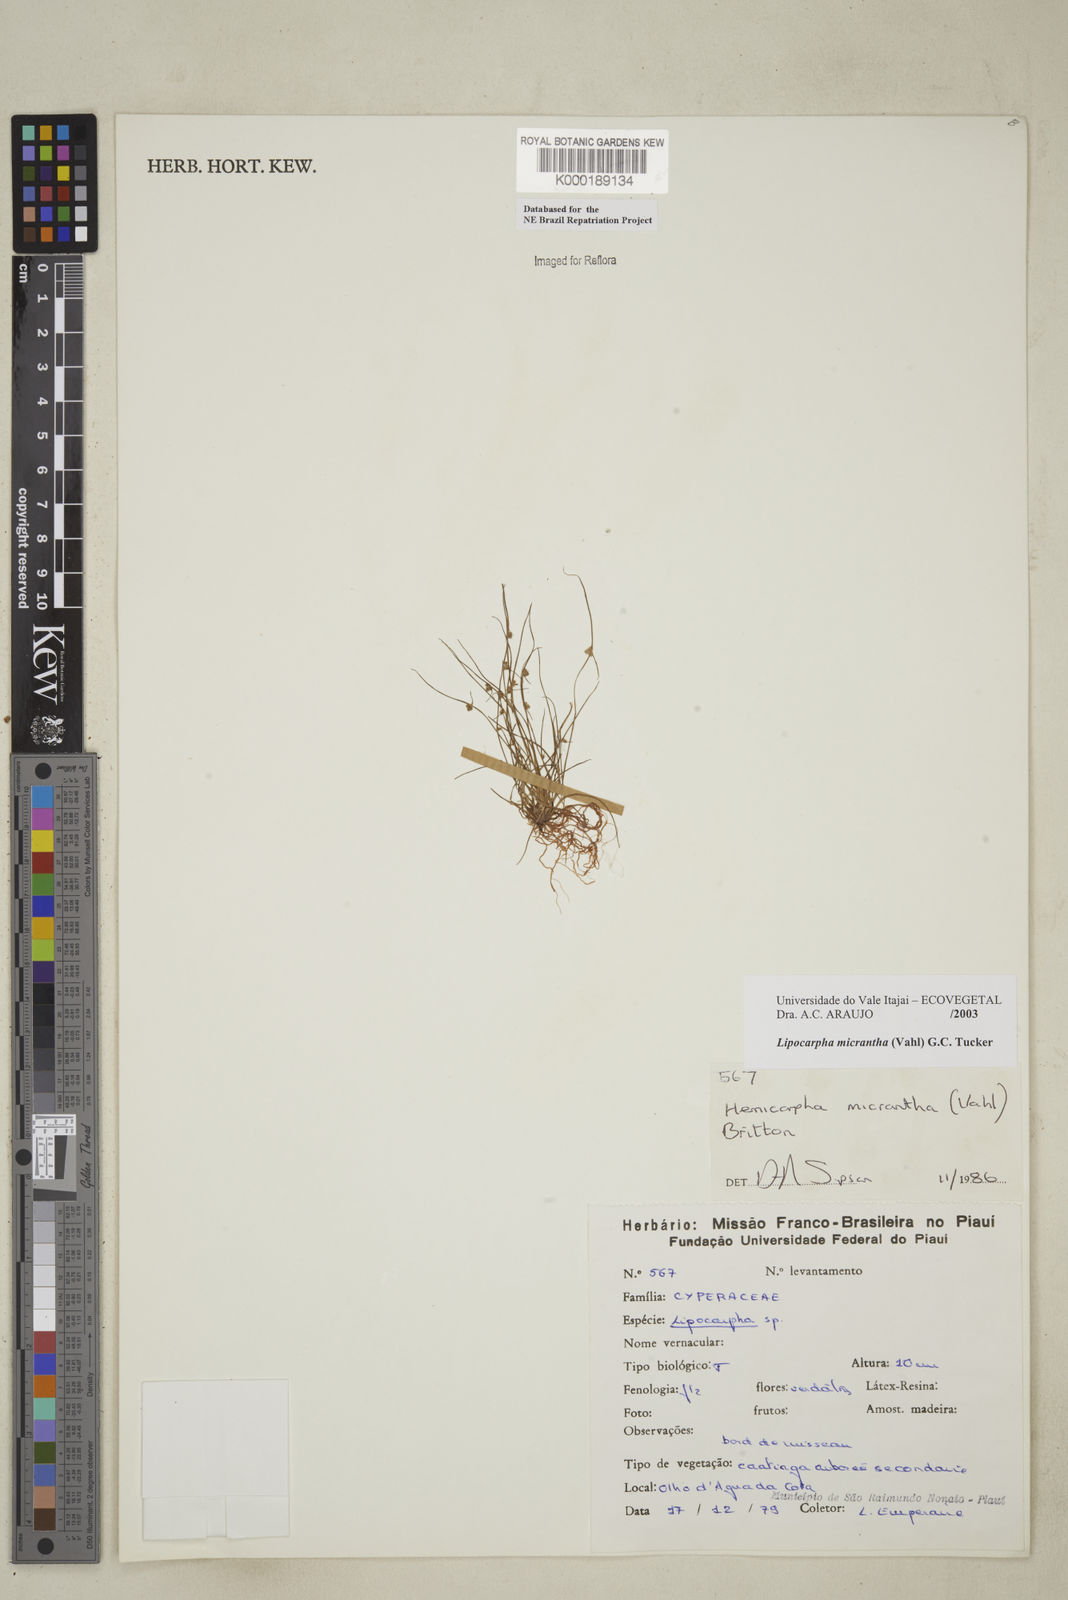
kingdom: Plantae
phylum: Tracheophyta
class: Liliopsida
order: Poales
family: Cyperaceae
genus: Cyperus
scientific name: Cyperus subsquarrosus
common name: Dwarf bulrush
